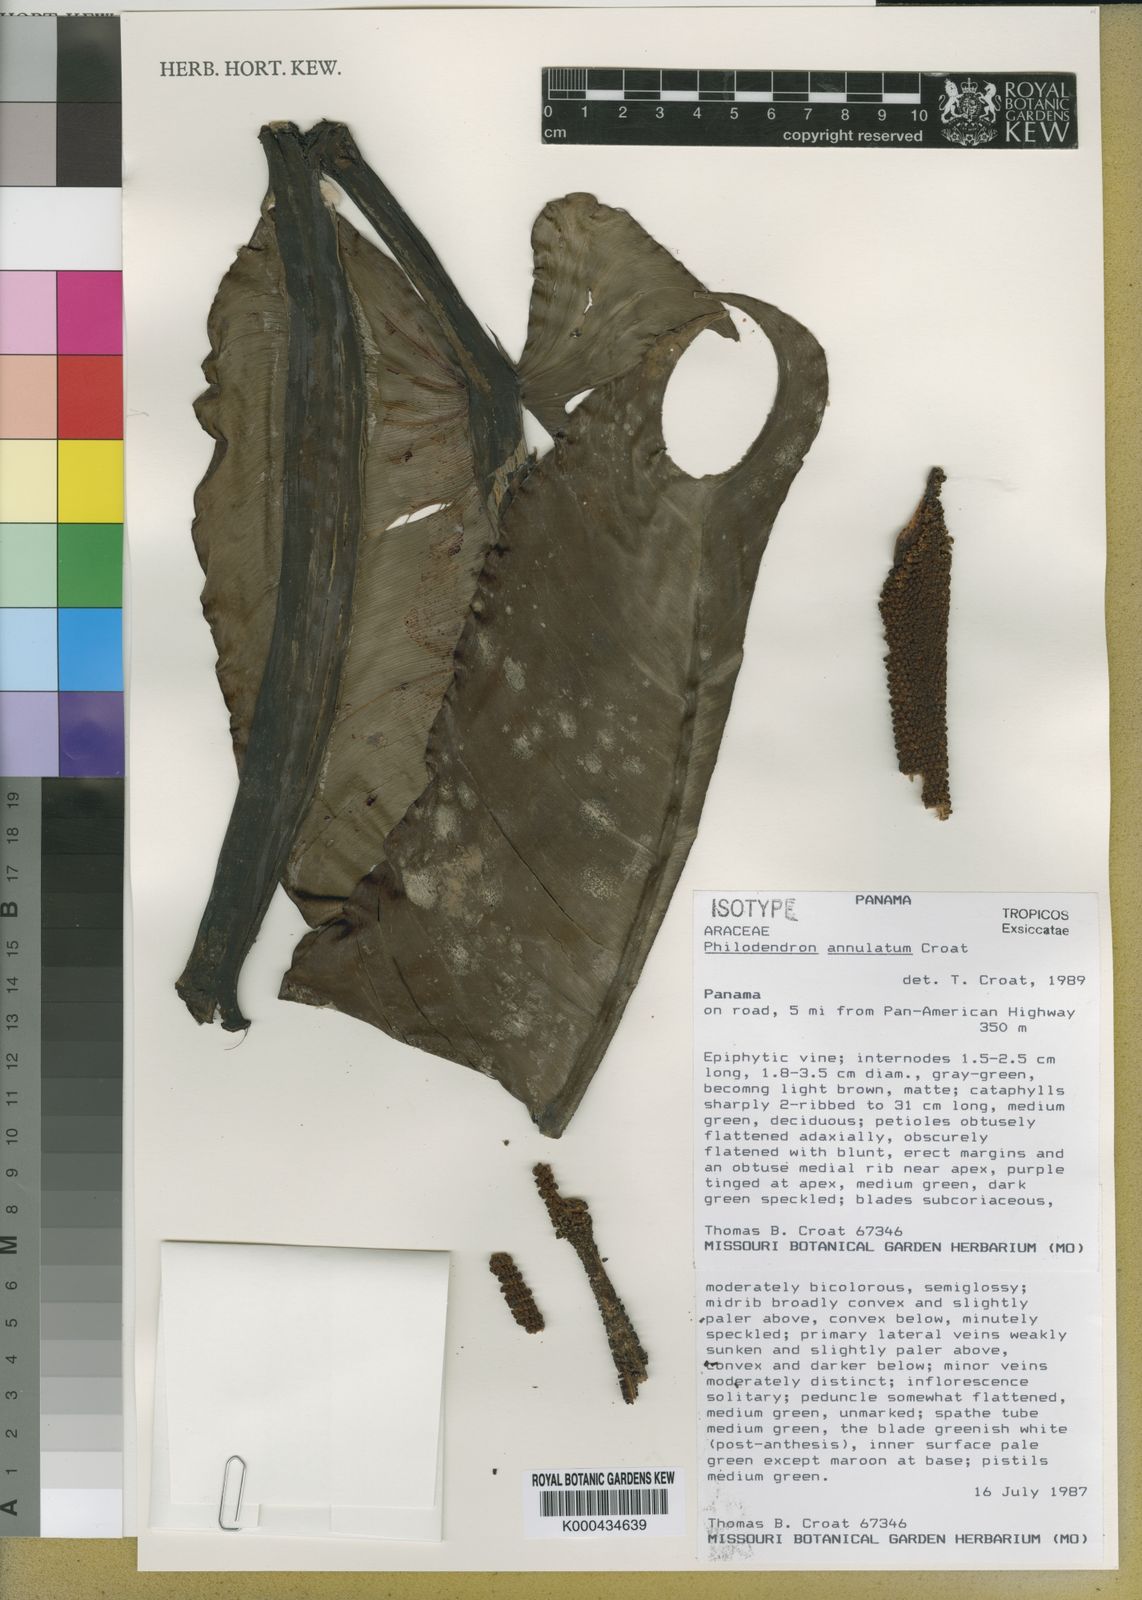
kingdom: Plantae
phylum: Tracheophyta
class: Liliopsida
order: Alismatales
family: Araceae
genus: Philodendron
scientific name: Philodendron annulatum
